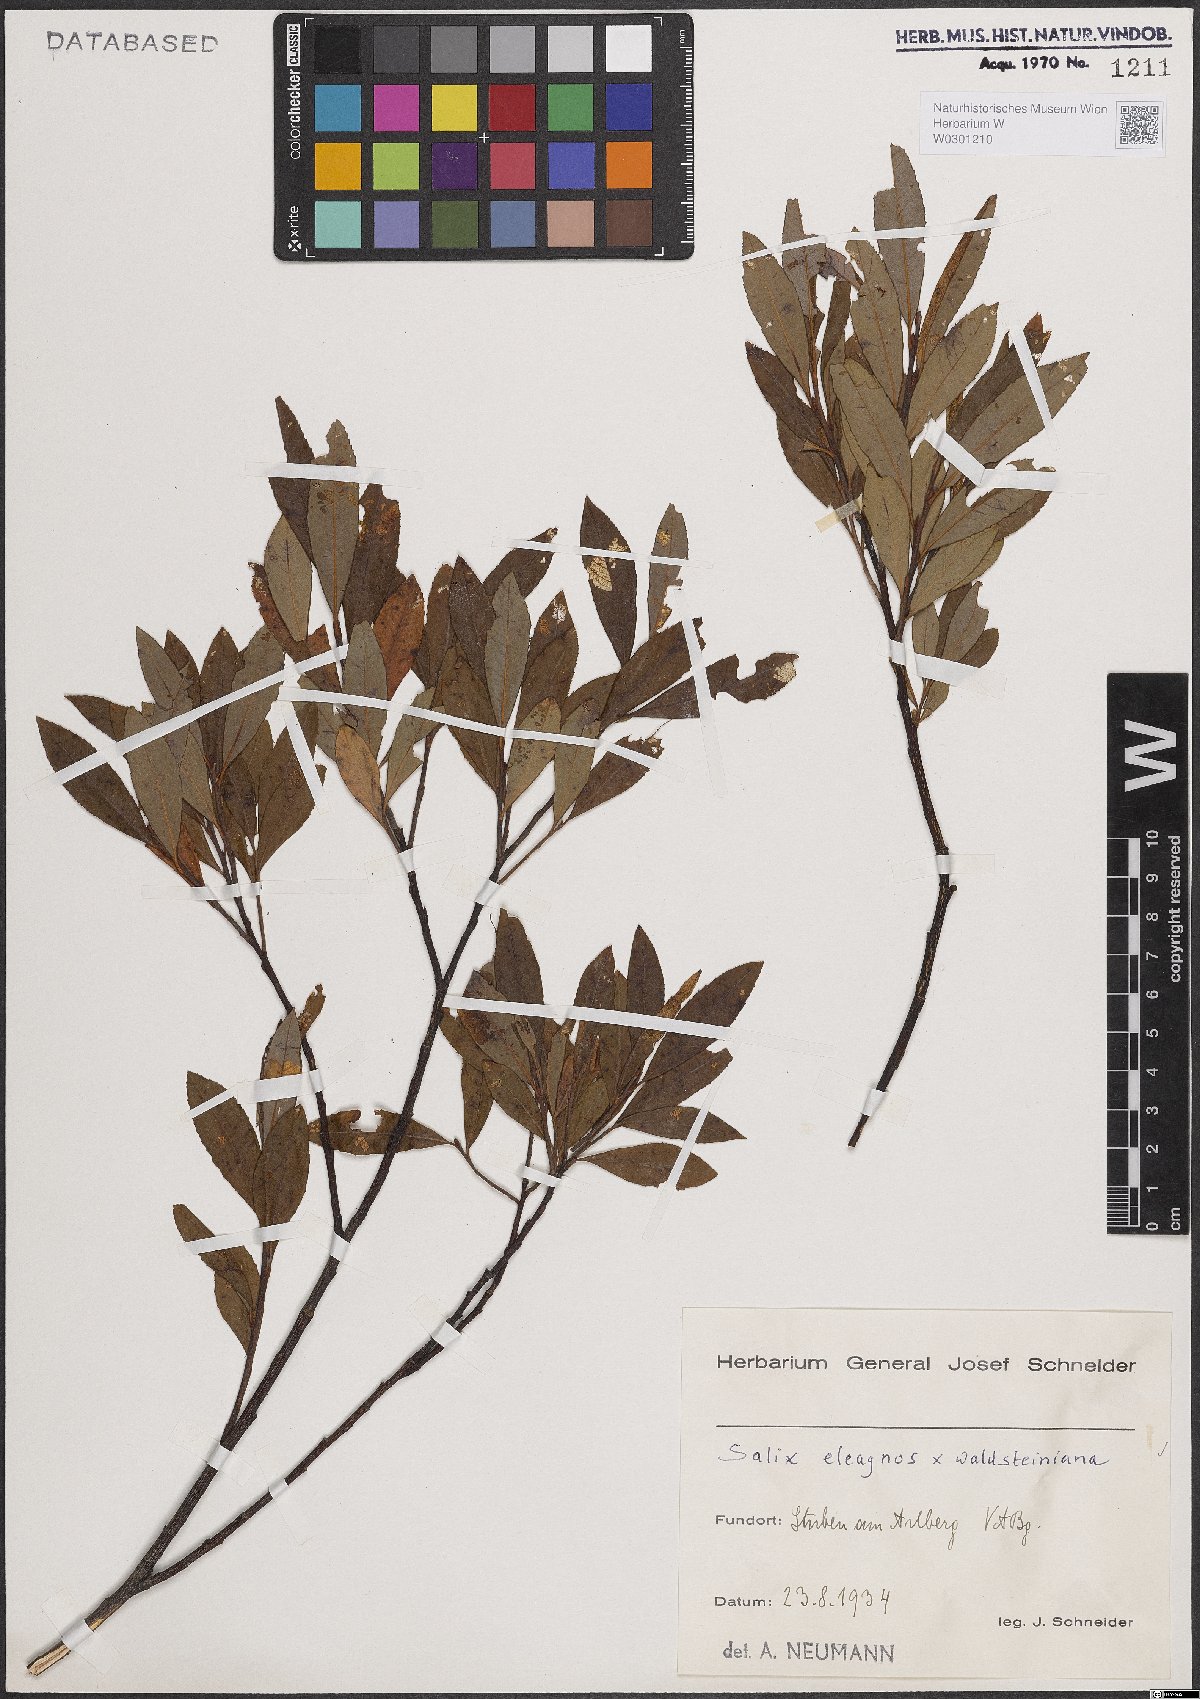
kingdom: Plantae
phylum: Tracheophyta
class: Magnoliopsida
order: Malpighiales
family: Salicaceae
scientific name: Salicaceae
